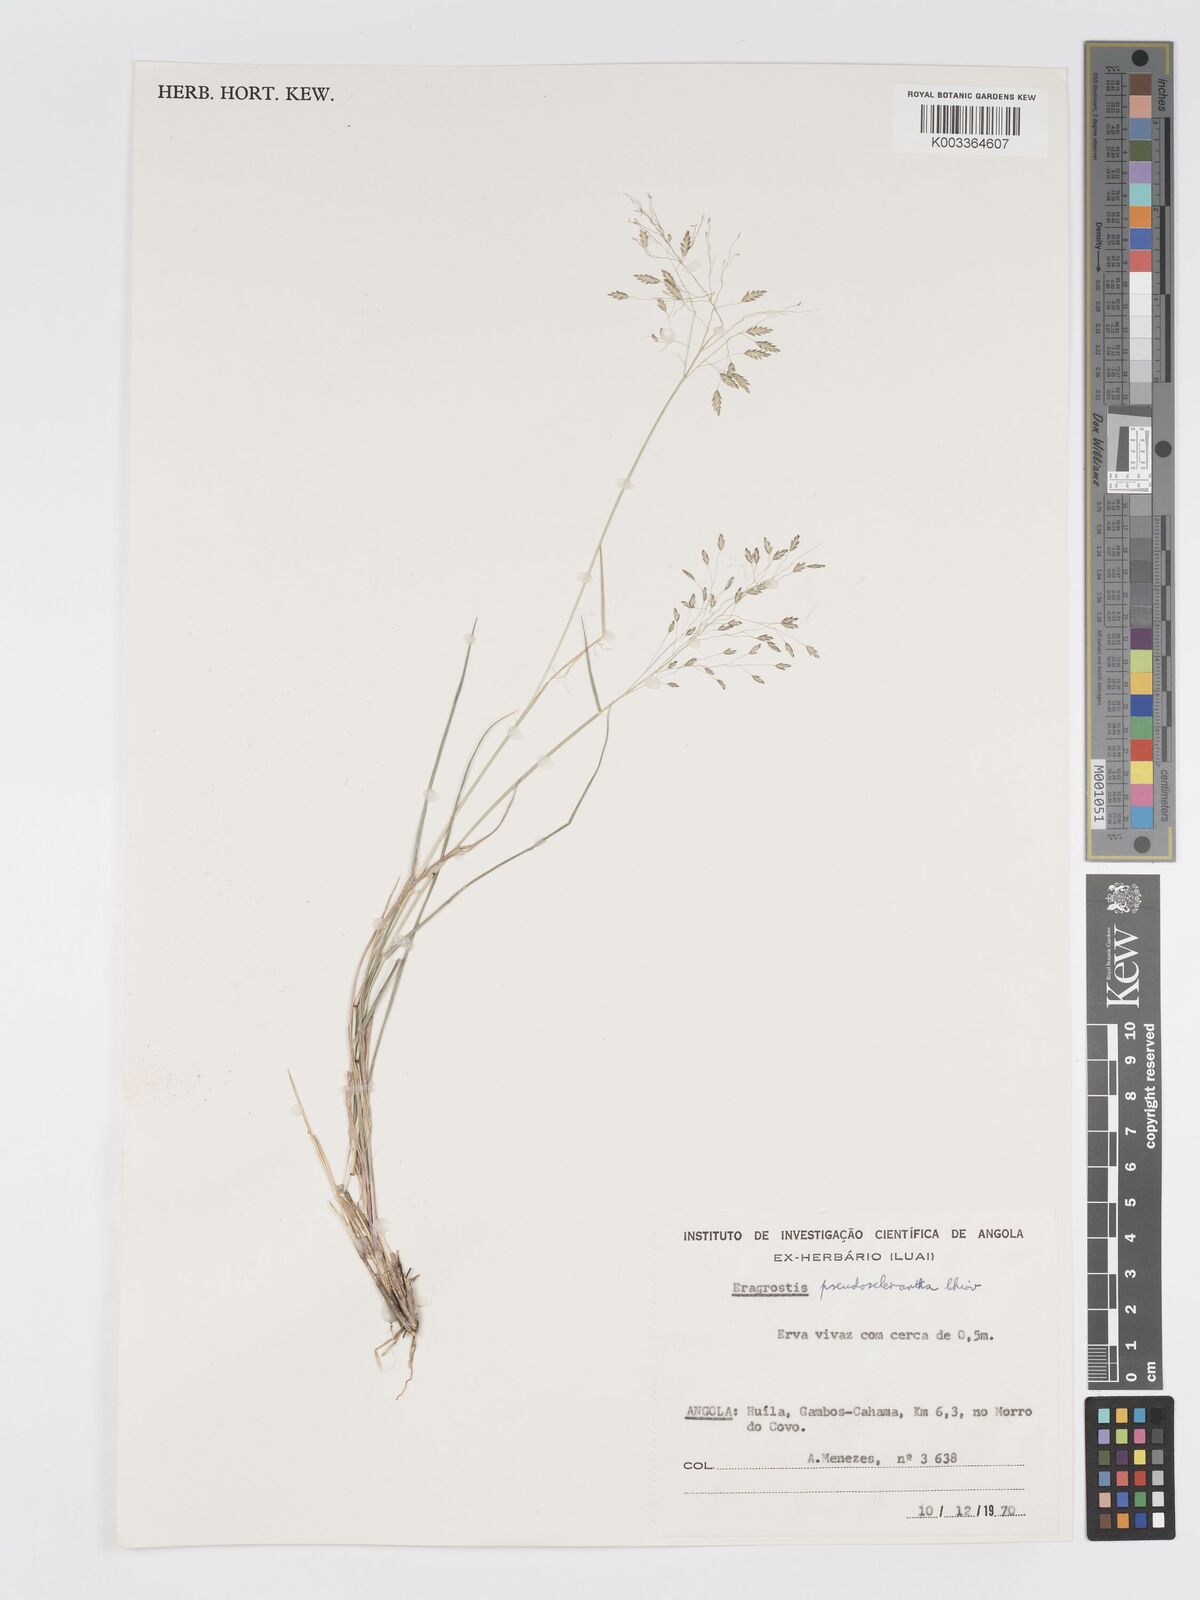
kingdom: Plantae
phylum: Tracheophyta
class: Liliopsida
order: Poales
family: Poaceae
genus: Eragrostis
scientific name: Eragrostis patentipilosa
